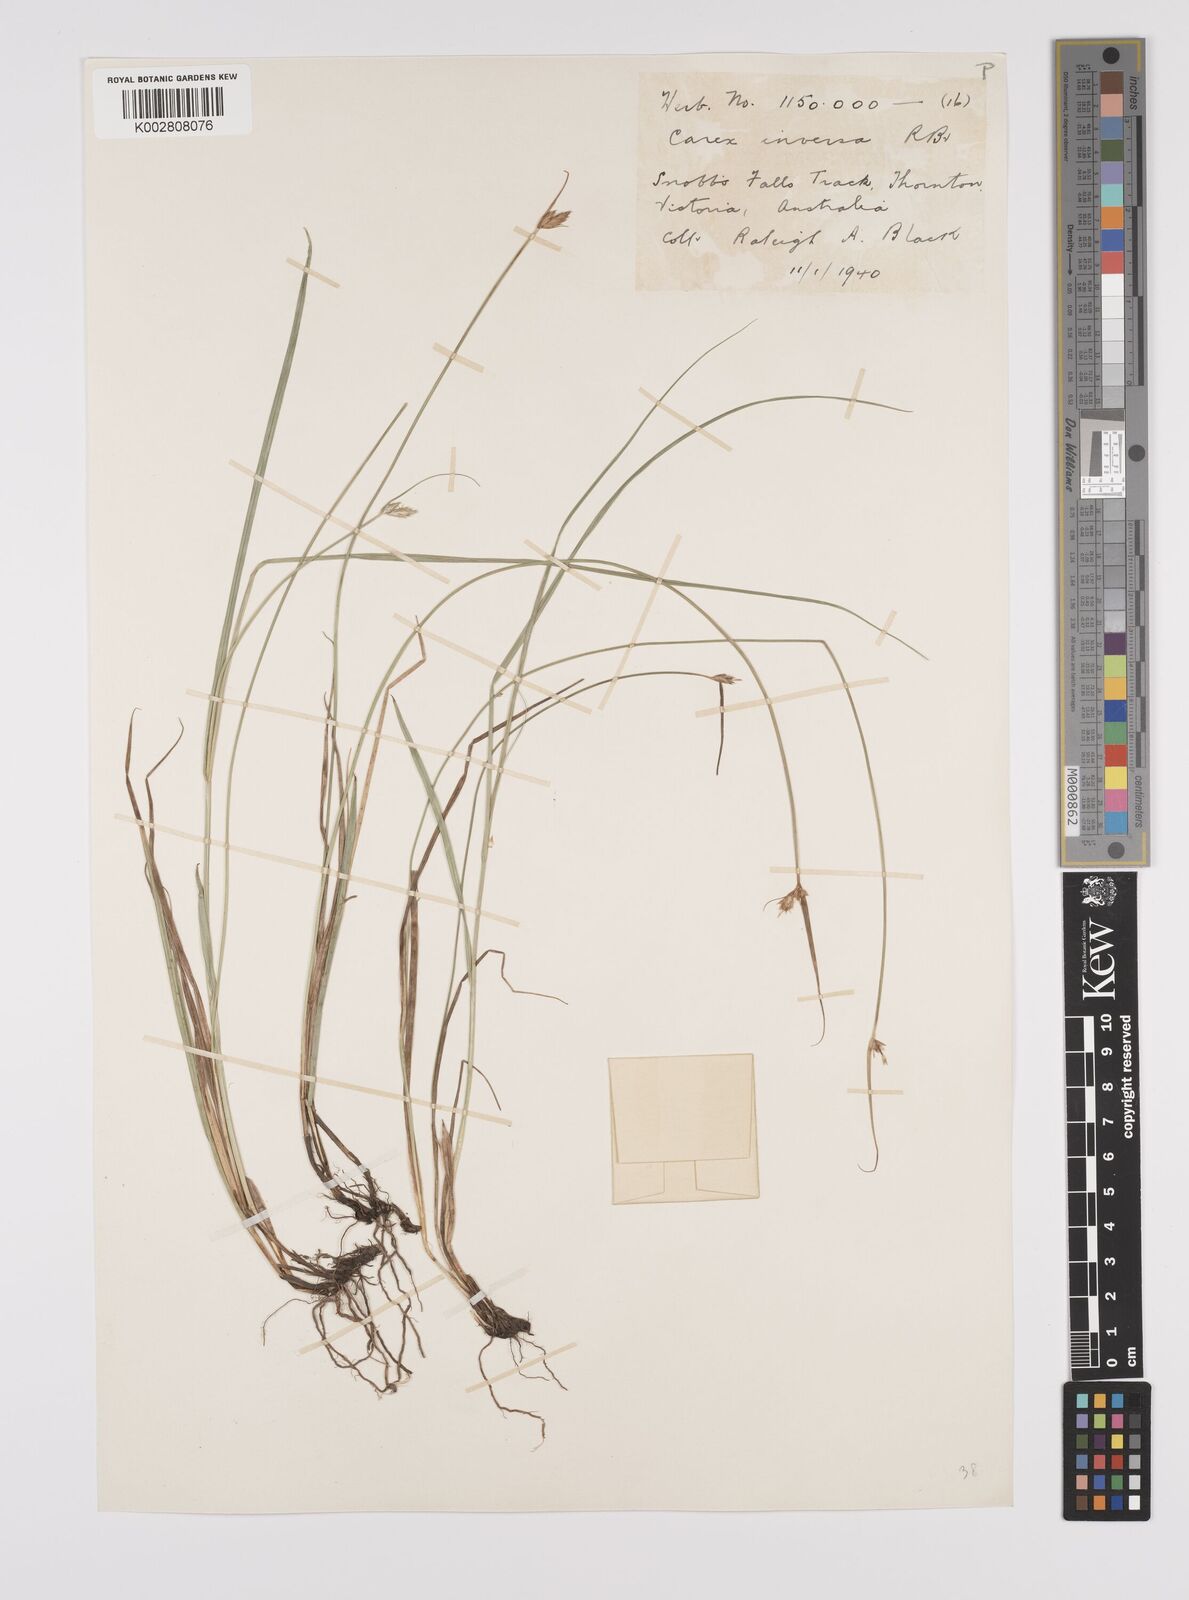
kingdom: Plantae
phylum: Tracheophyta
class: Liliopsida
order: Poales
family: Cyperaceae
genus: Carex
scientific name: Carex inversa
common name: Knob sedge
